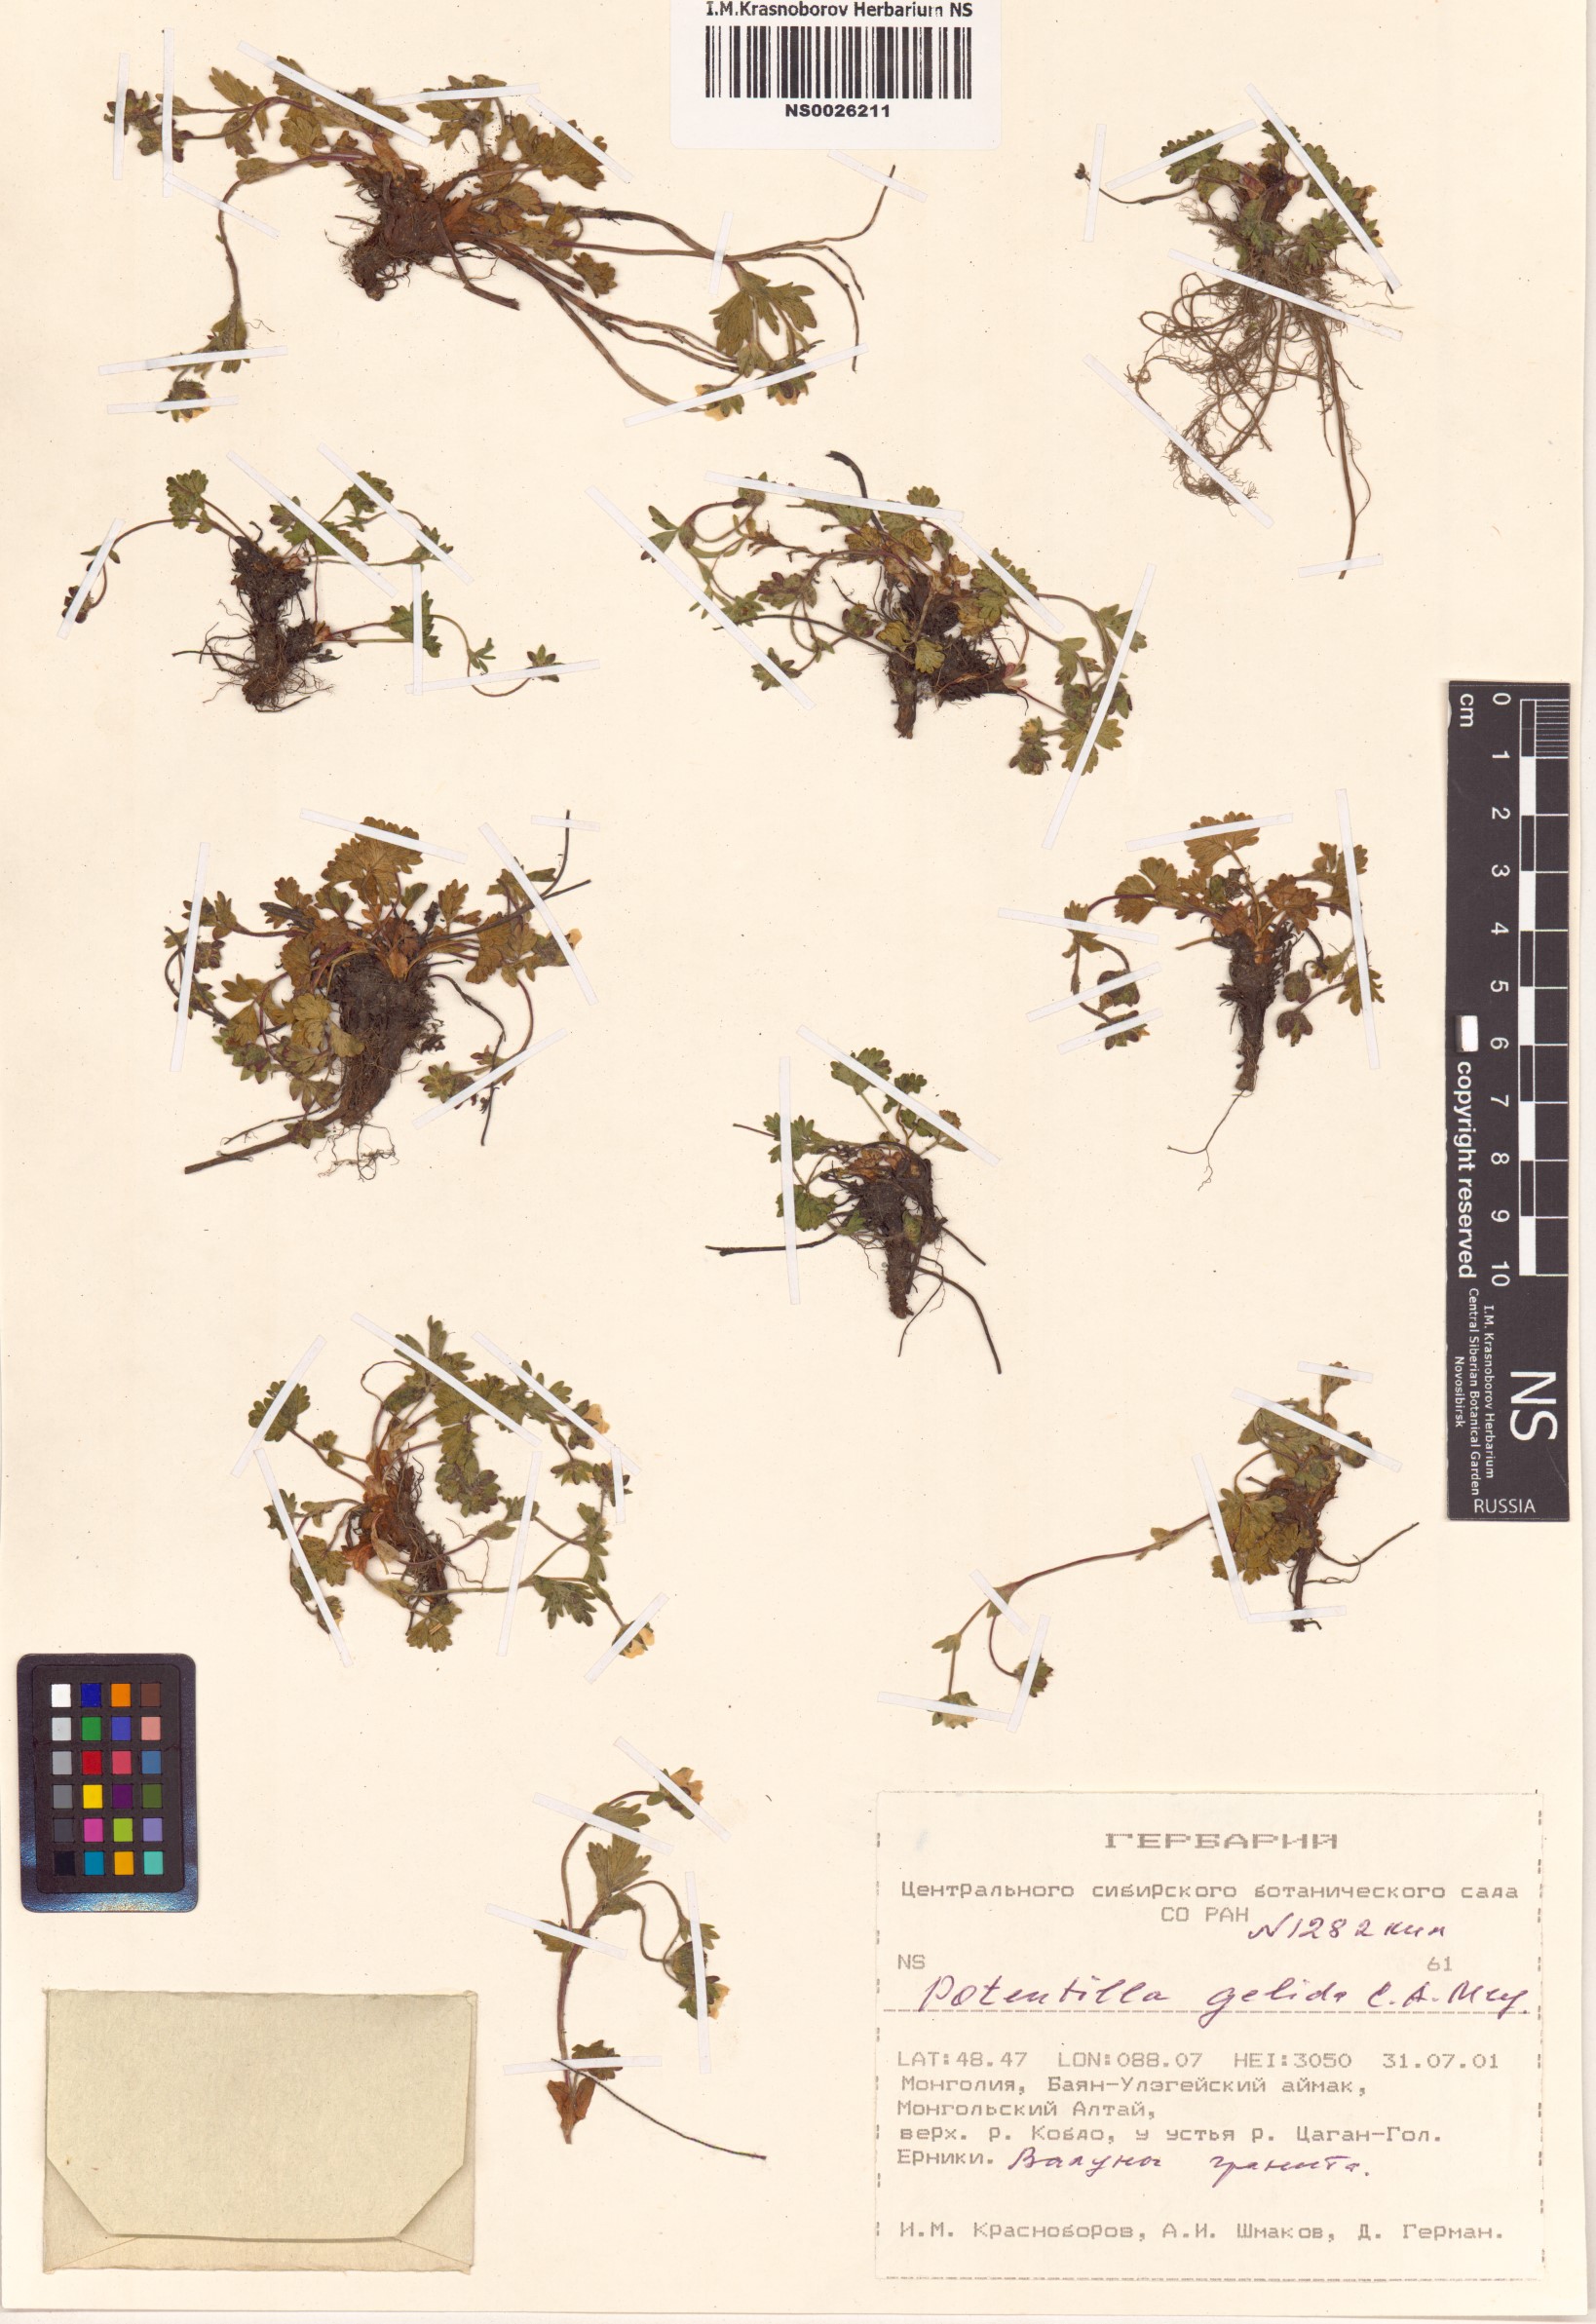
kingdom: Plantae
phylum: Tracheophyta
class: Magnoliopsida
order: Rosales
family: Rosaceae
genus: Potentilla
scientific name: Potentilla crantzii
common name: Alpine cinquefoil
